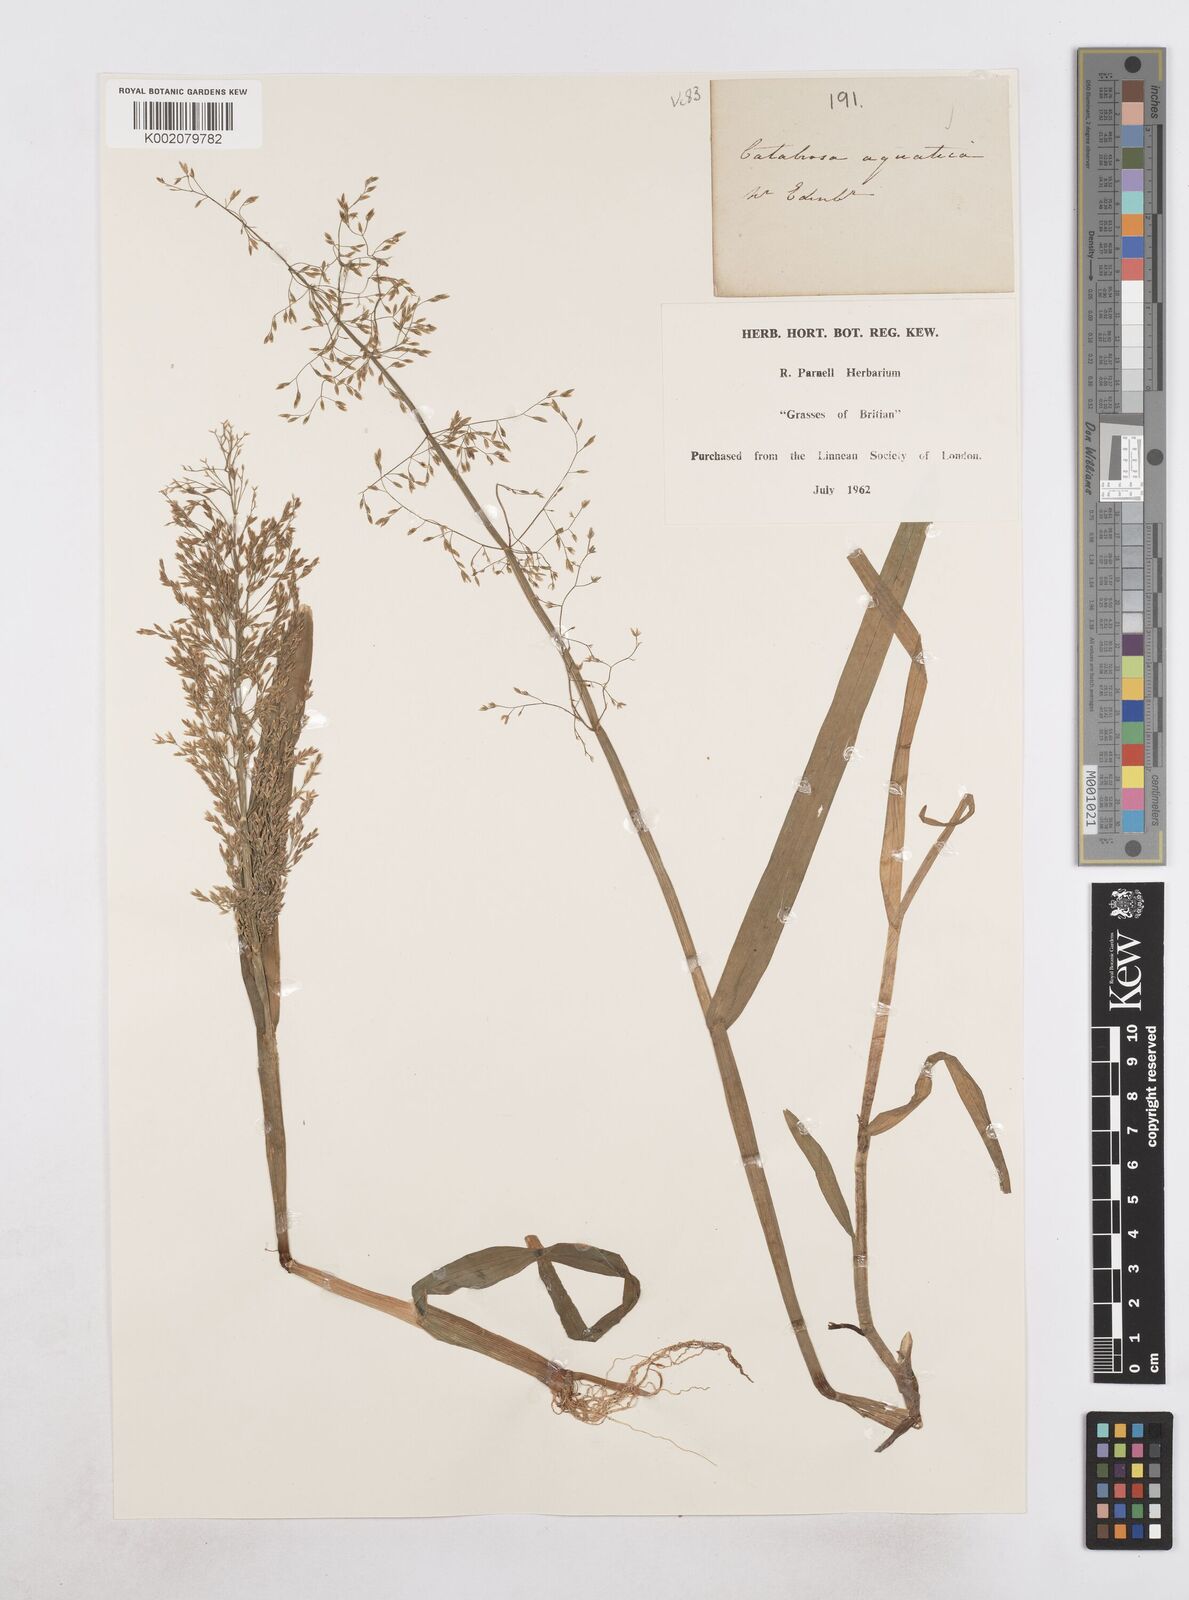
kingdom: Plantae
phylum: Tracheophyta
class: Liliopsida
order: Poales
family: Poaceae
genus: Catabrosa
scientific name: Catabrosa aquatica
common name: Whorl-grass
